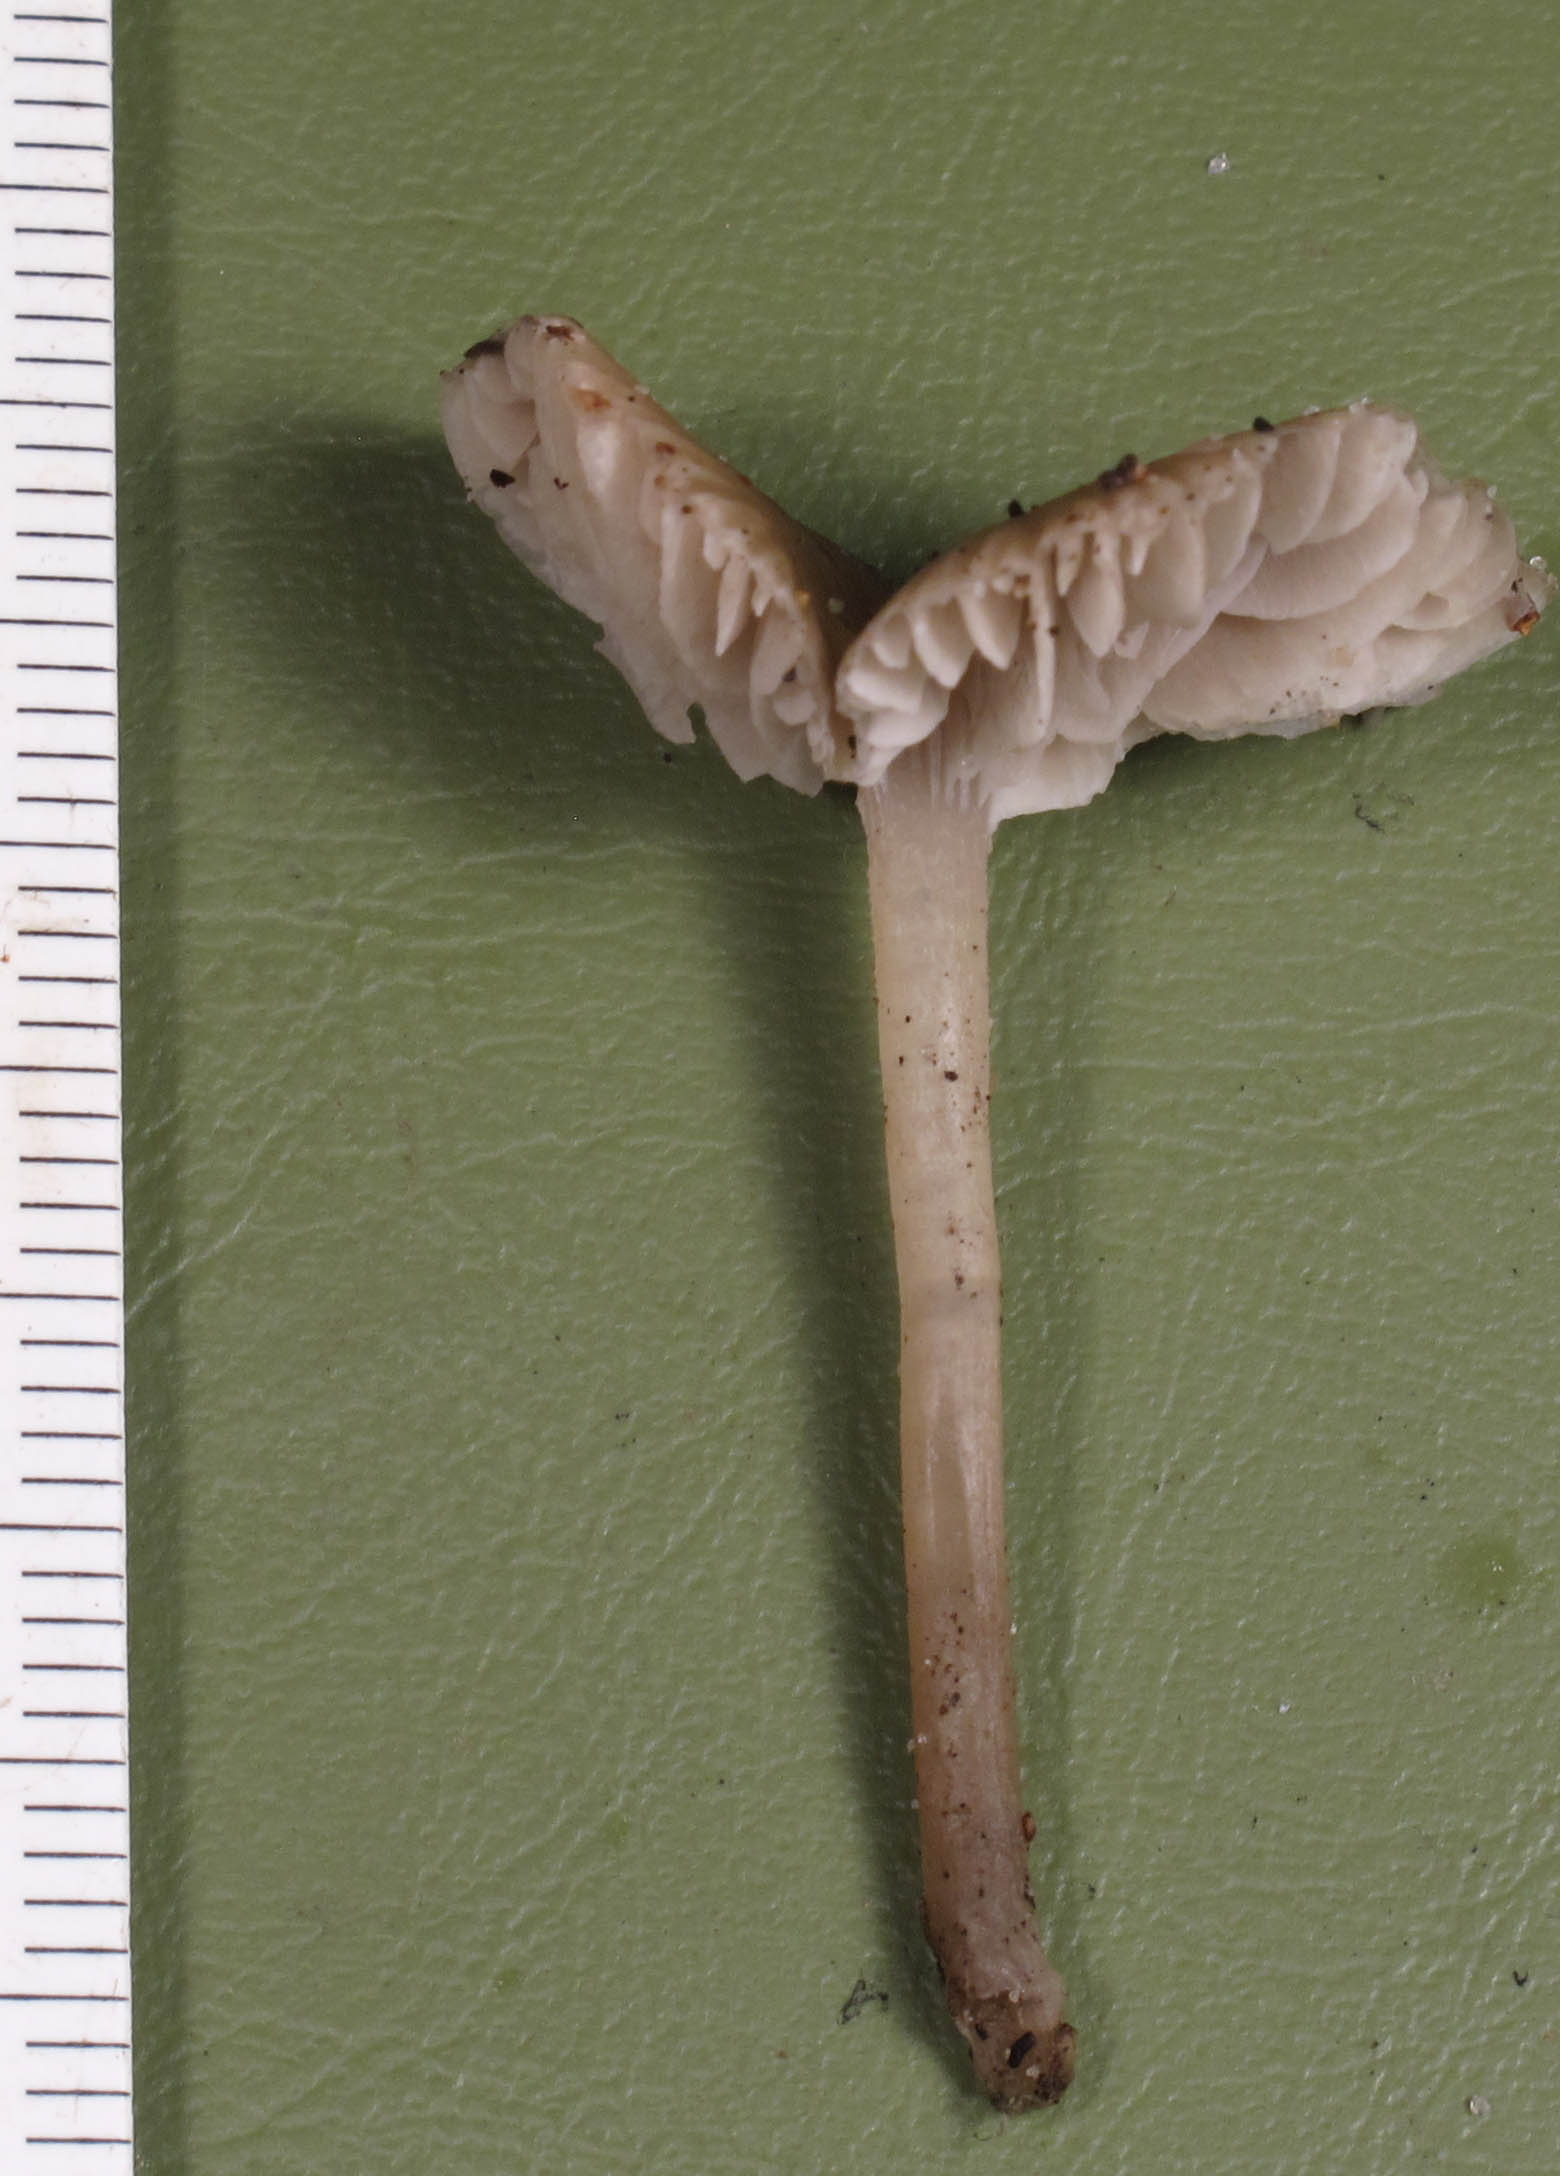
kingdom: Fungi
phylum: Basidiomycota
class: Agaricomycetes
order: Agaricales
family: Tricholomataceae
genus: Gamundia
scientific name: Gamundia striatula
